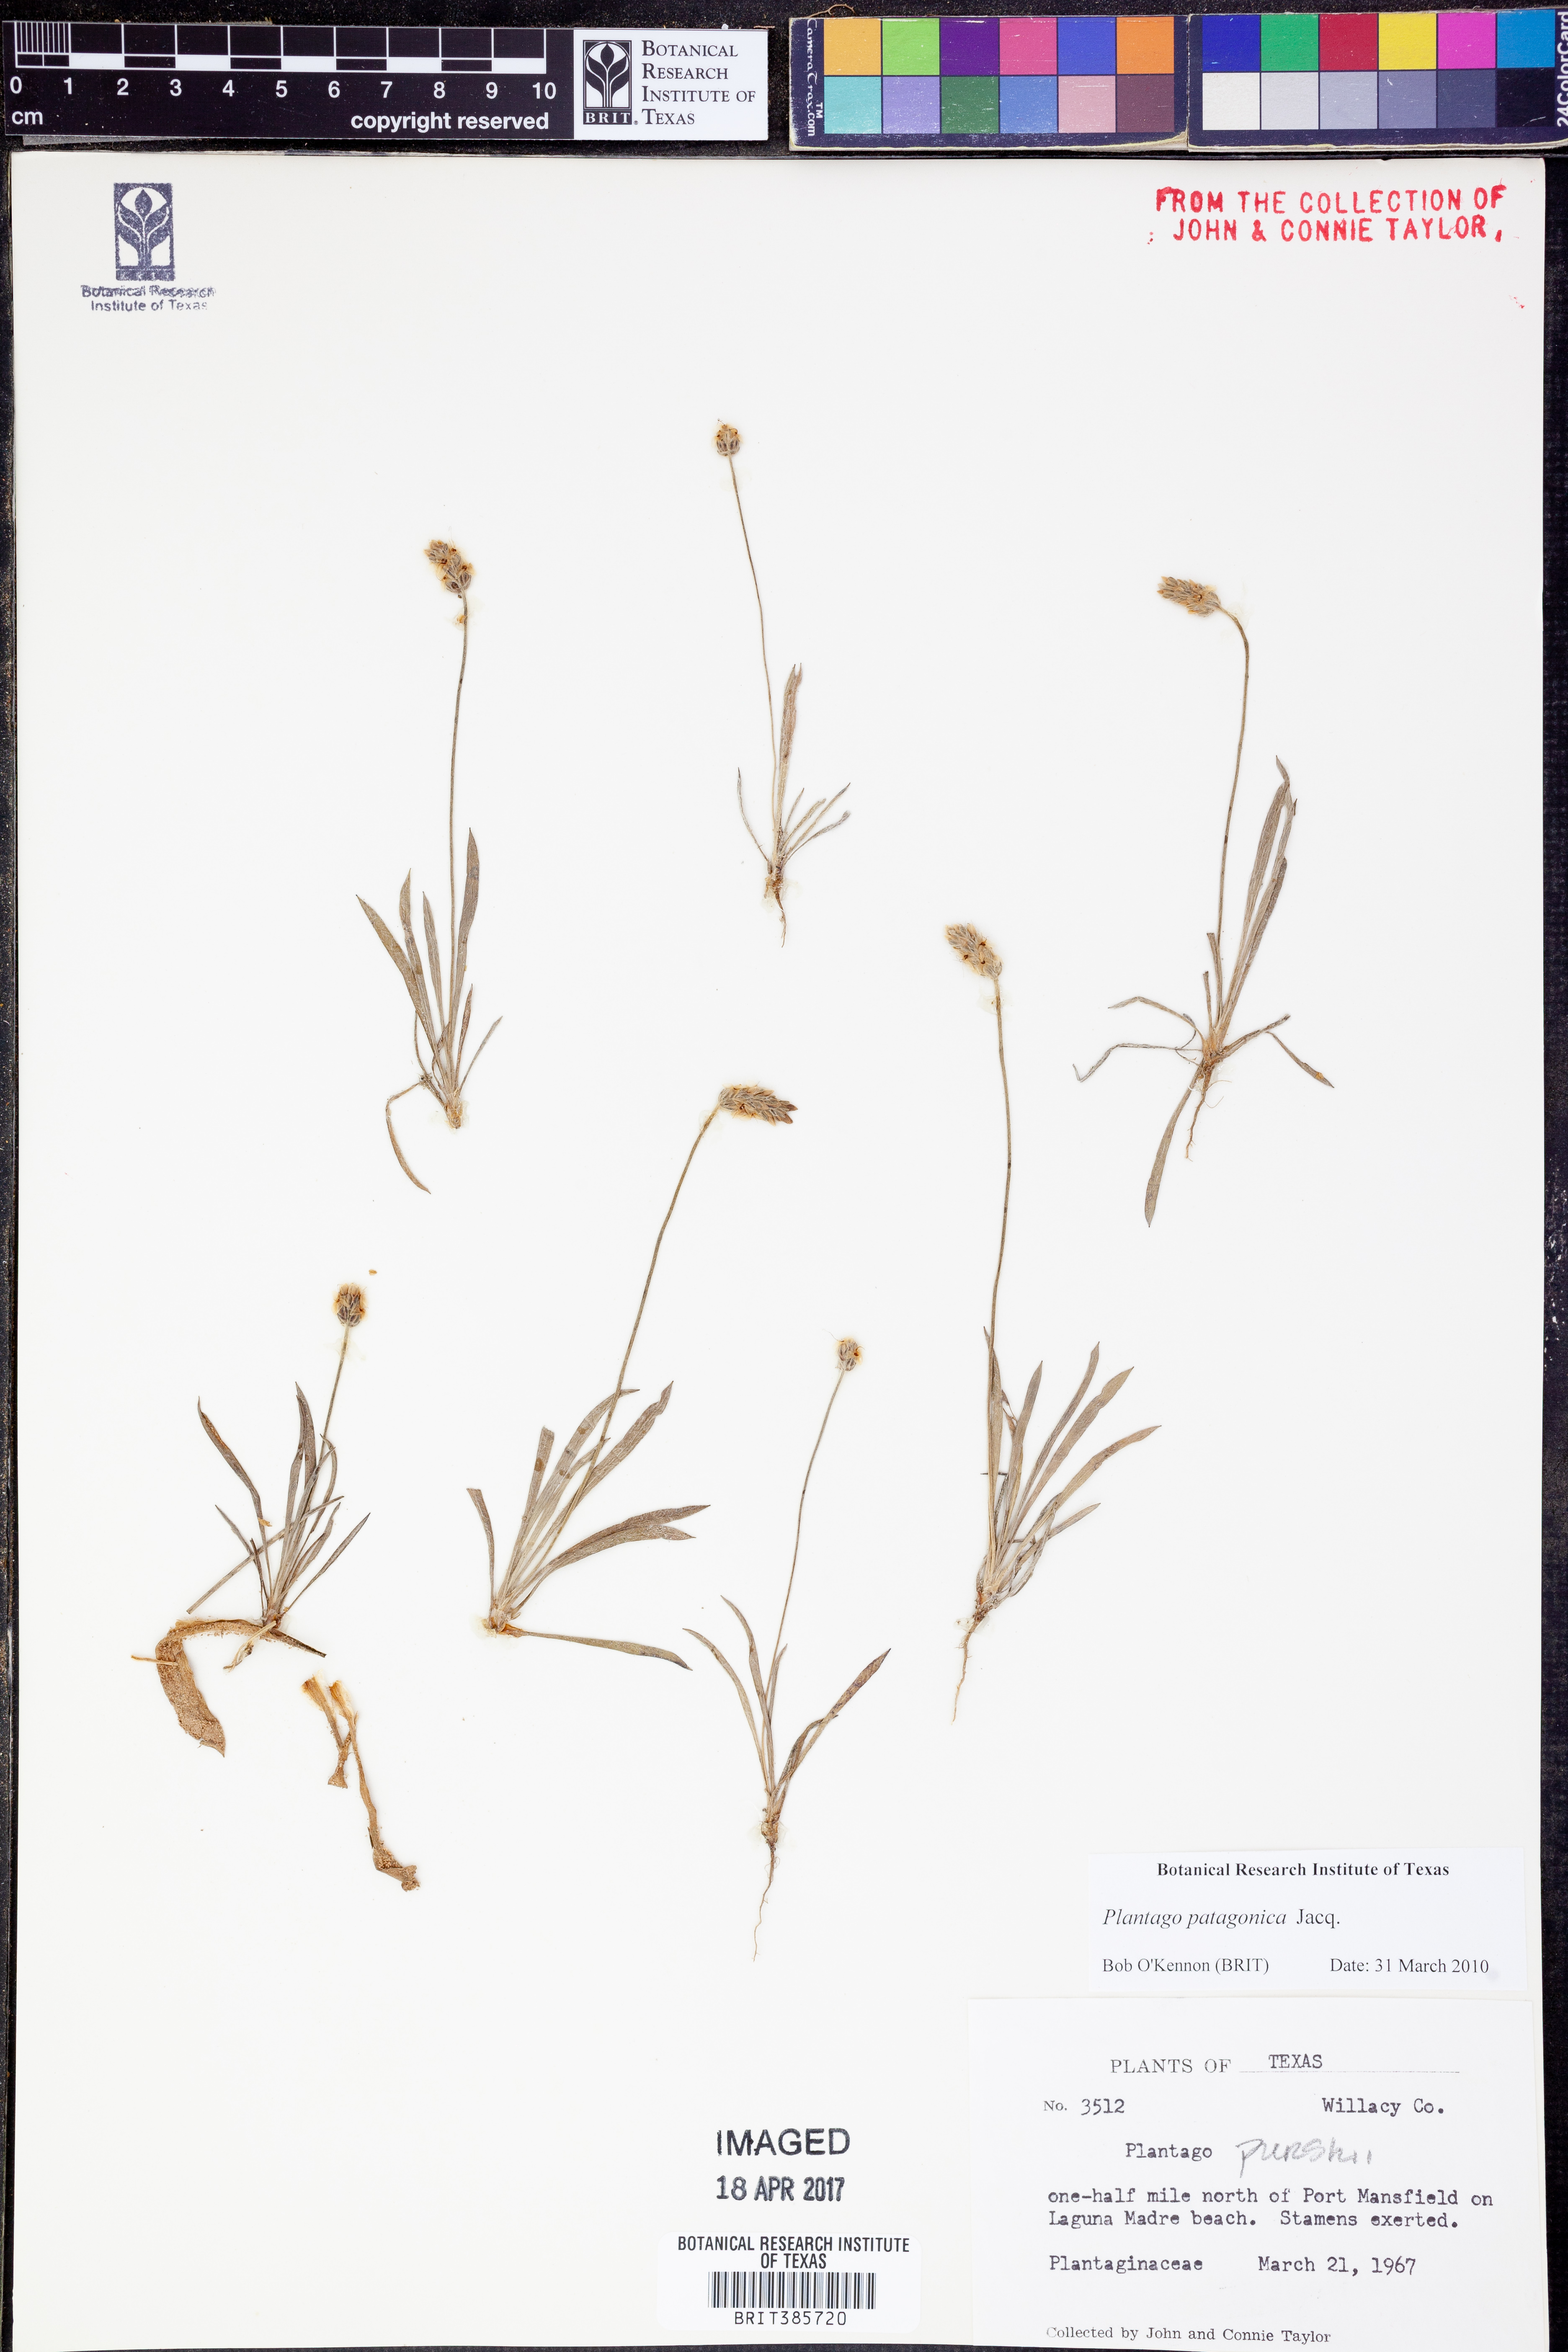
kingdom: Plantae
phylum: Tracheophyta
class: Magnoliopsida
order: Lamiales
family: Plantaginaceae
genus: Plantago
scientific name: Plantago patagonica
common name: Patagonia indian-wheat
